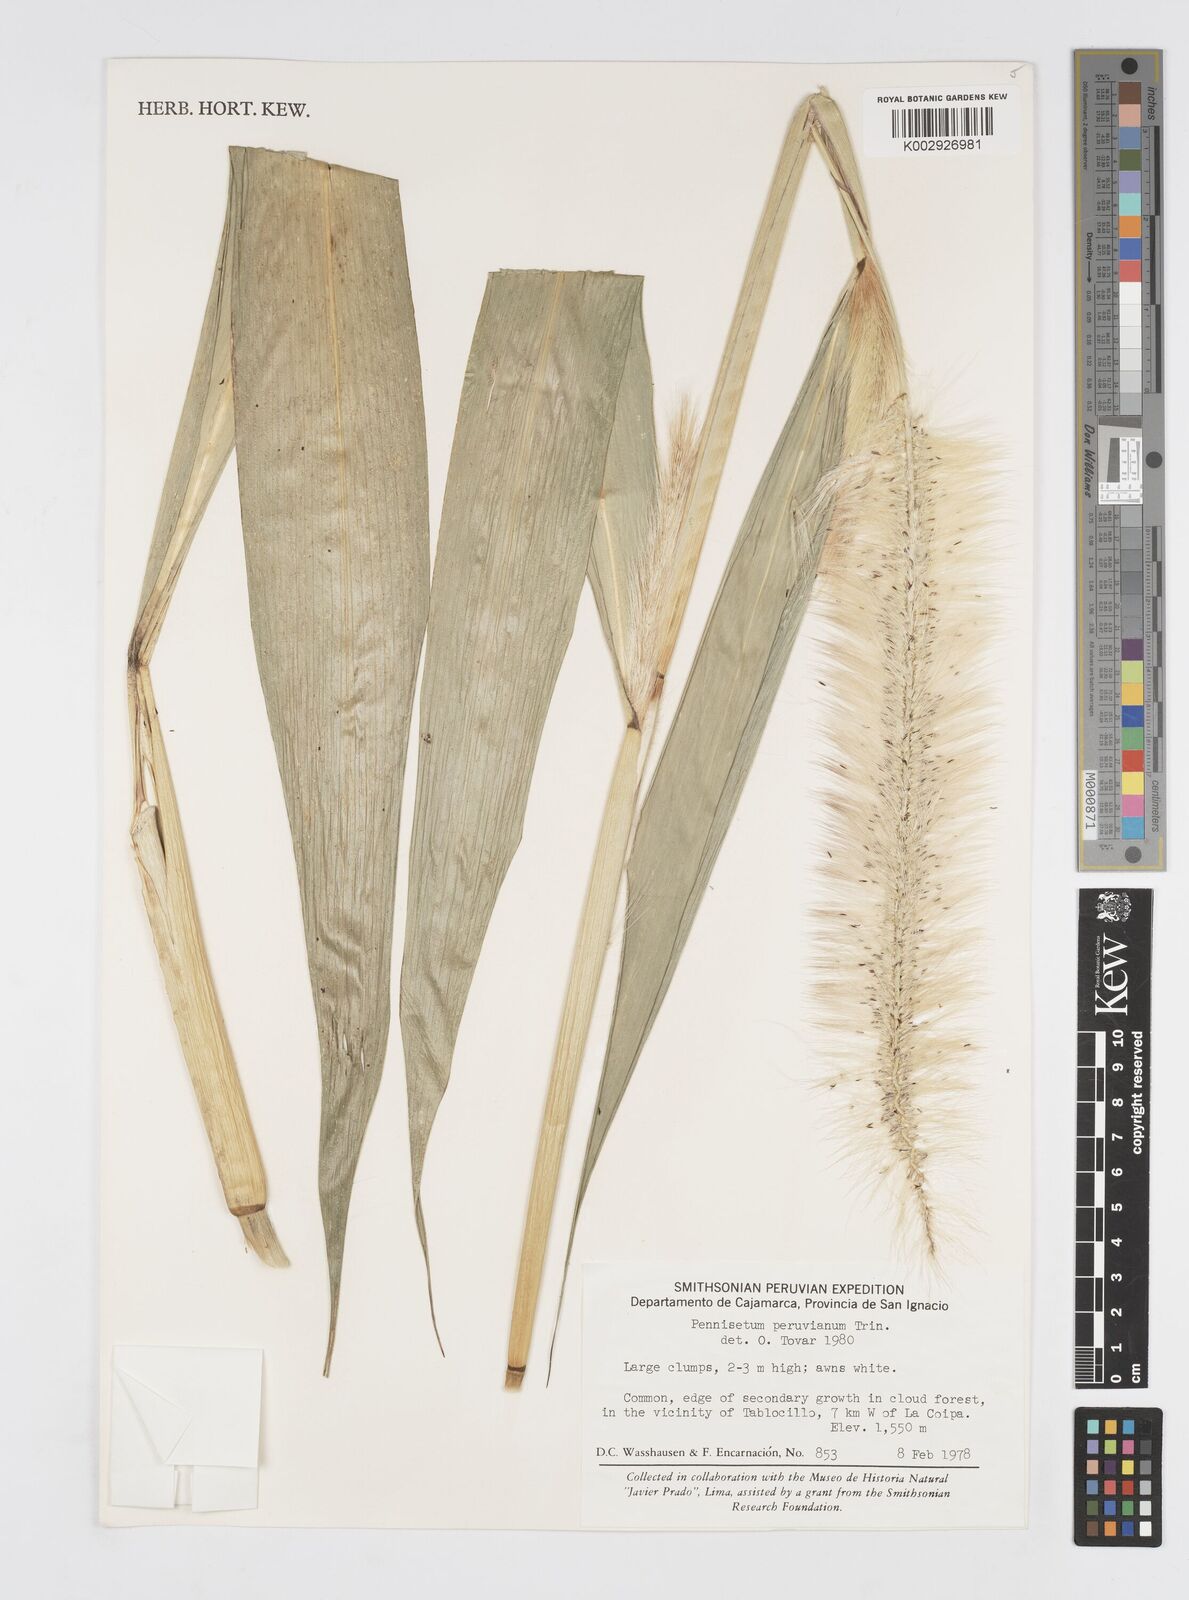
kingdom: Plantae
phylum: Tracheophyta
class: Liliopsida
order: Poales
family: Poaceae
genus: Cenchrus
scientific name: Cenchrus peruvianus
